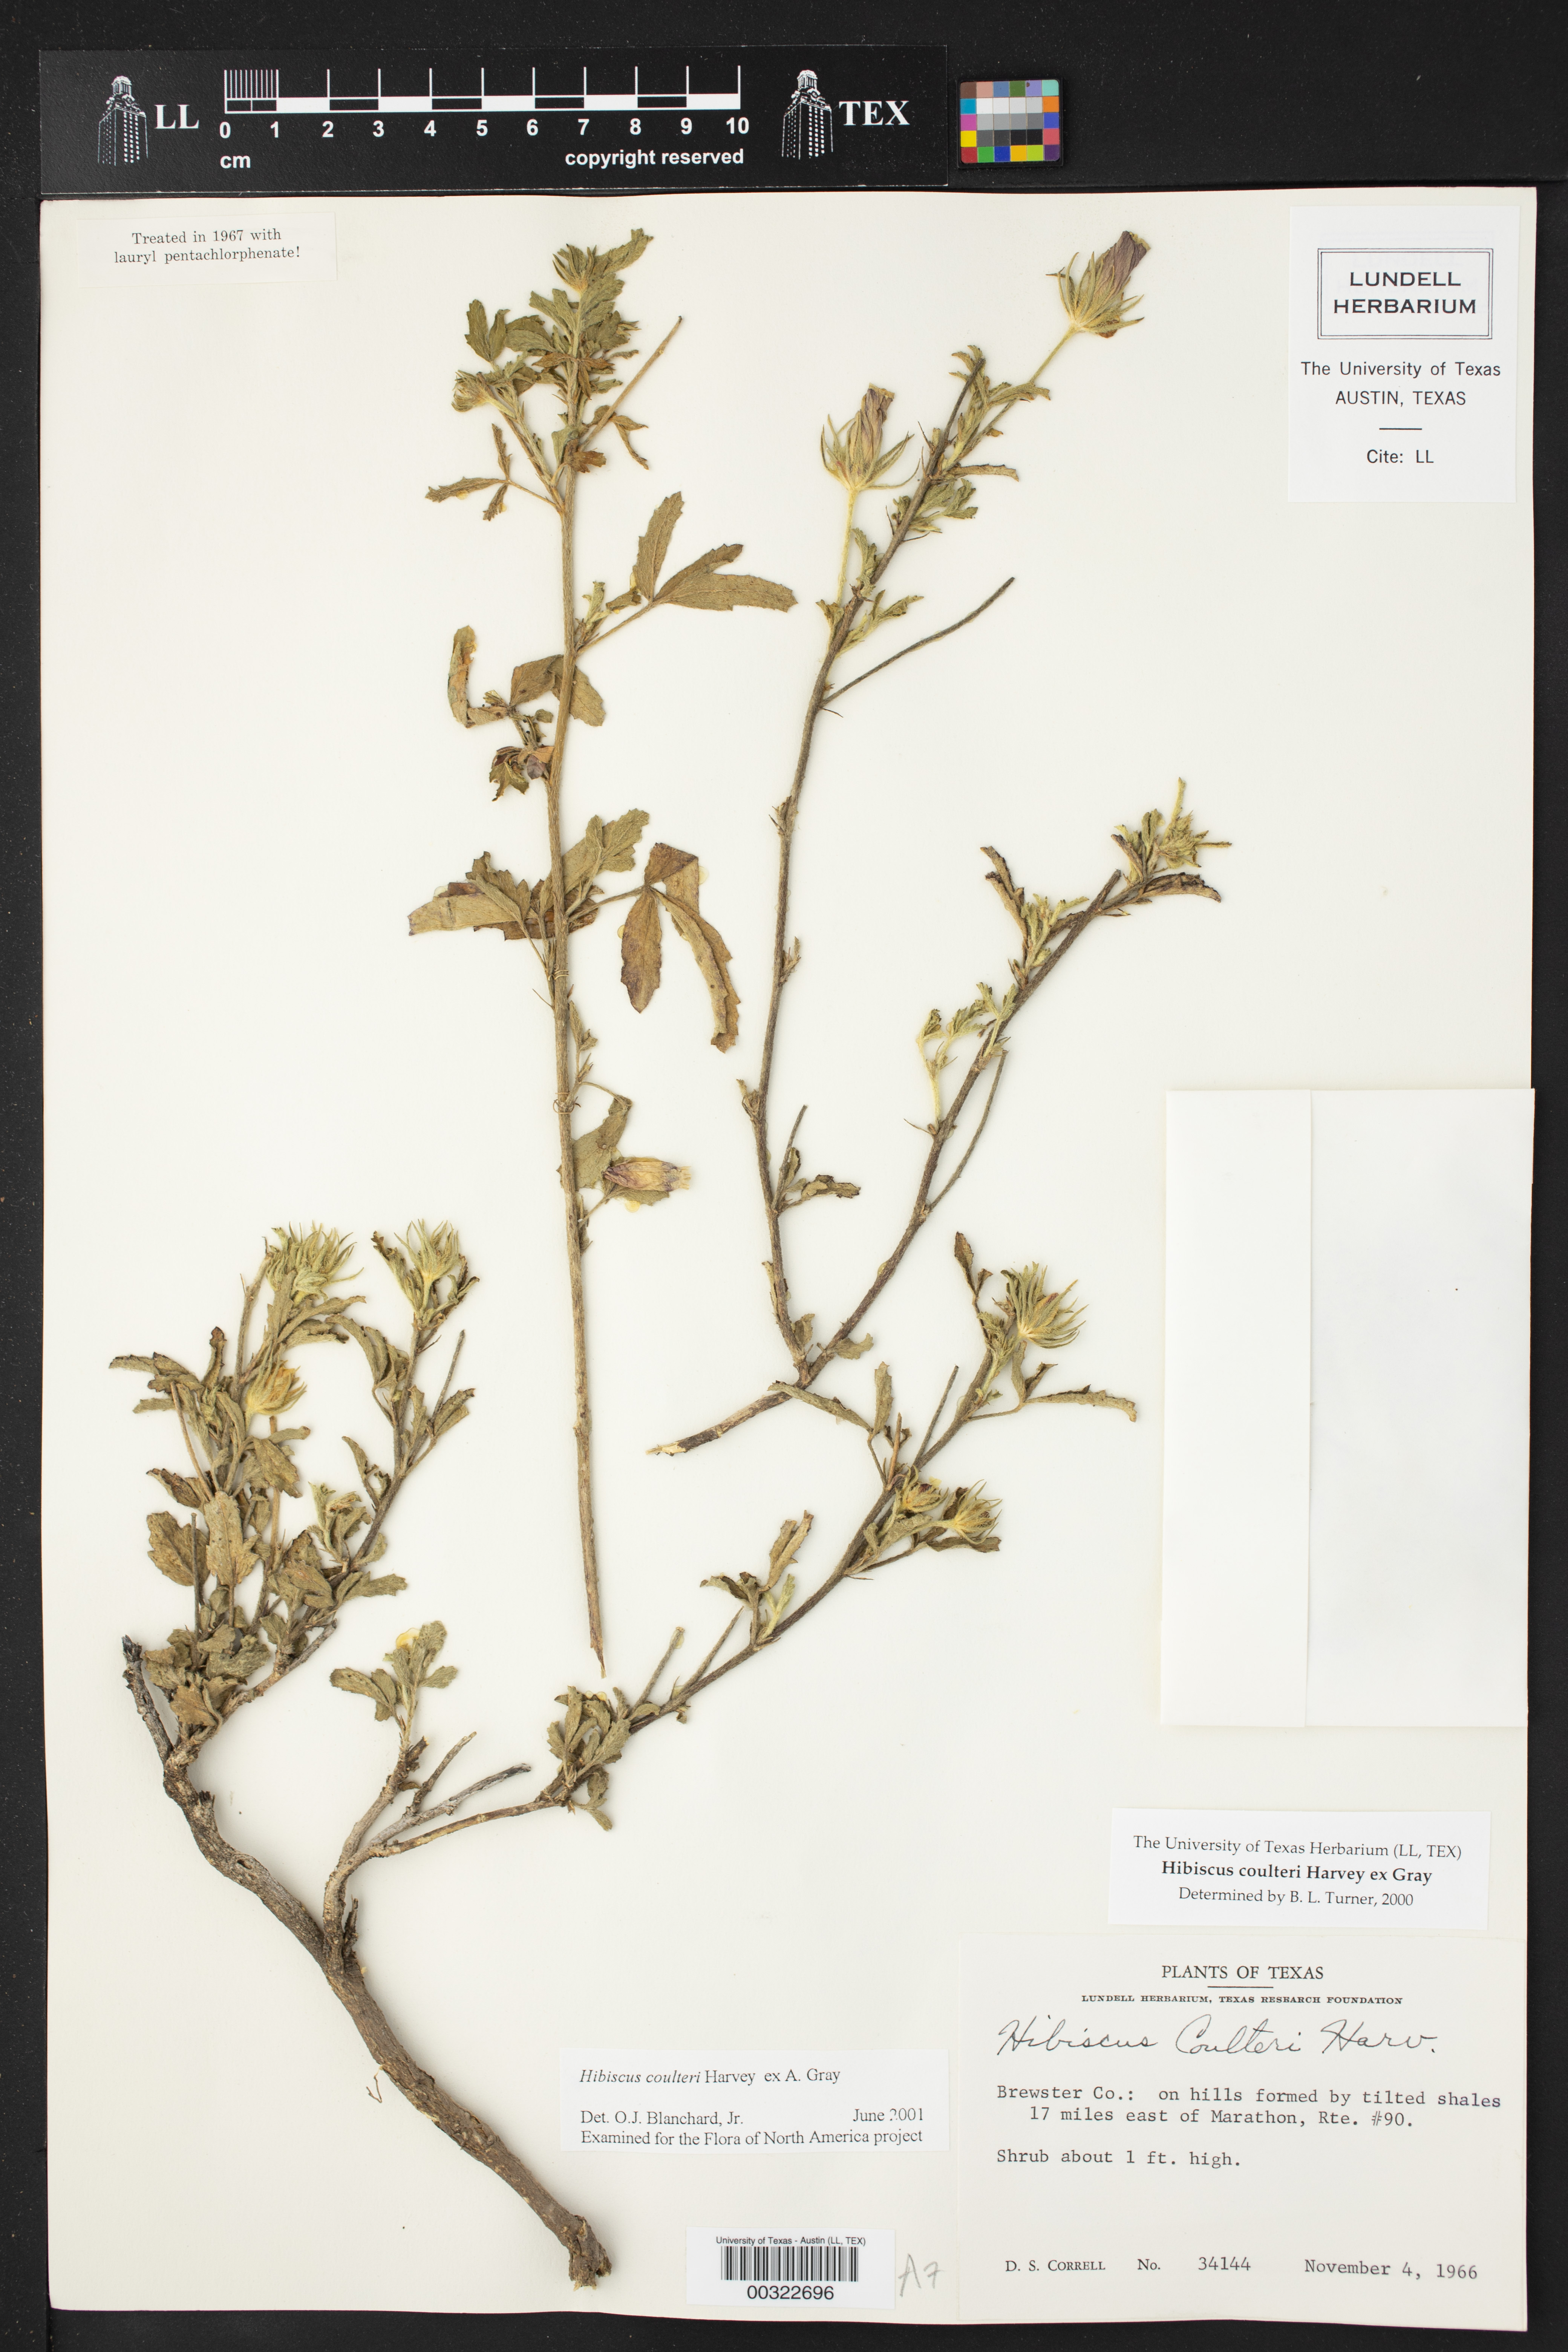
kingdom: Plantae
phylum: Tracheophyta
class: Magnoliopsida
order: Malvales
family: Malvaceae
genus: Hibiscus
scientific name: Hibiscus coulteri
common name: Desert rose-mallow
